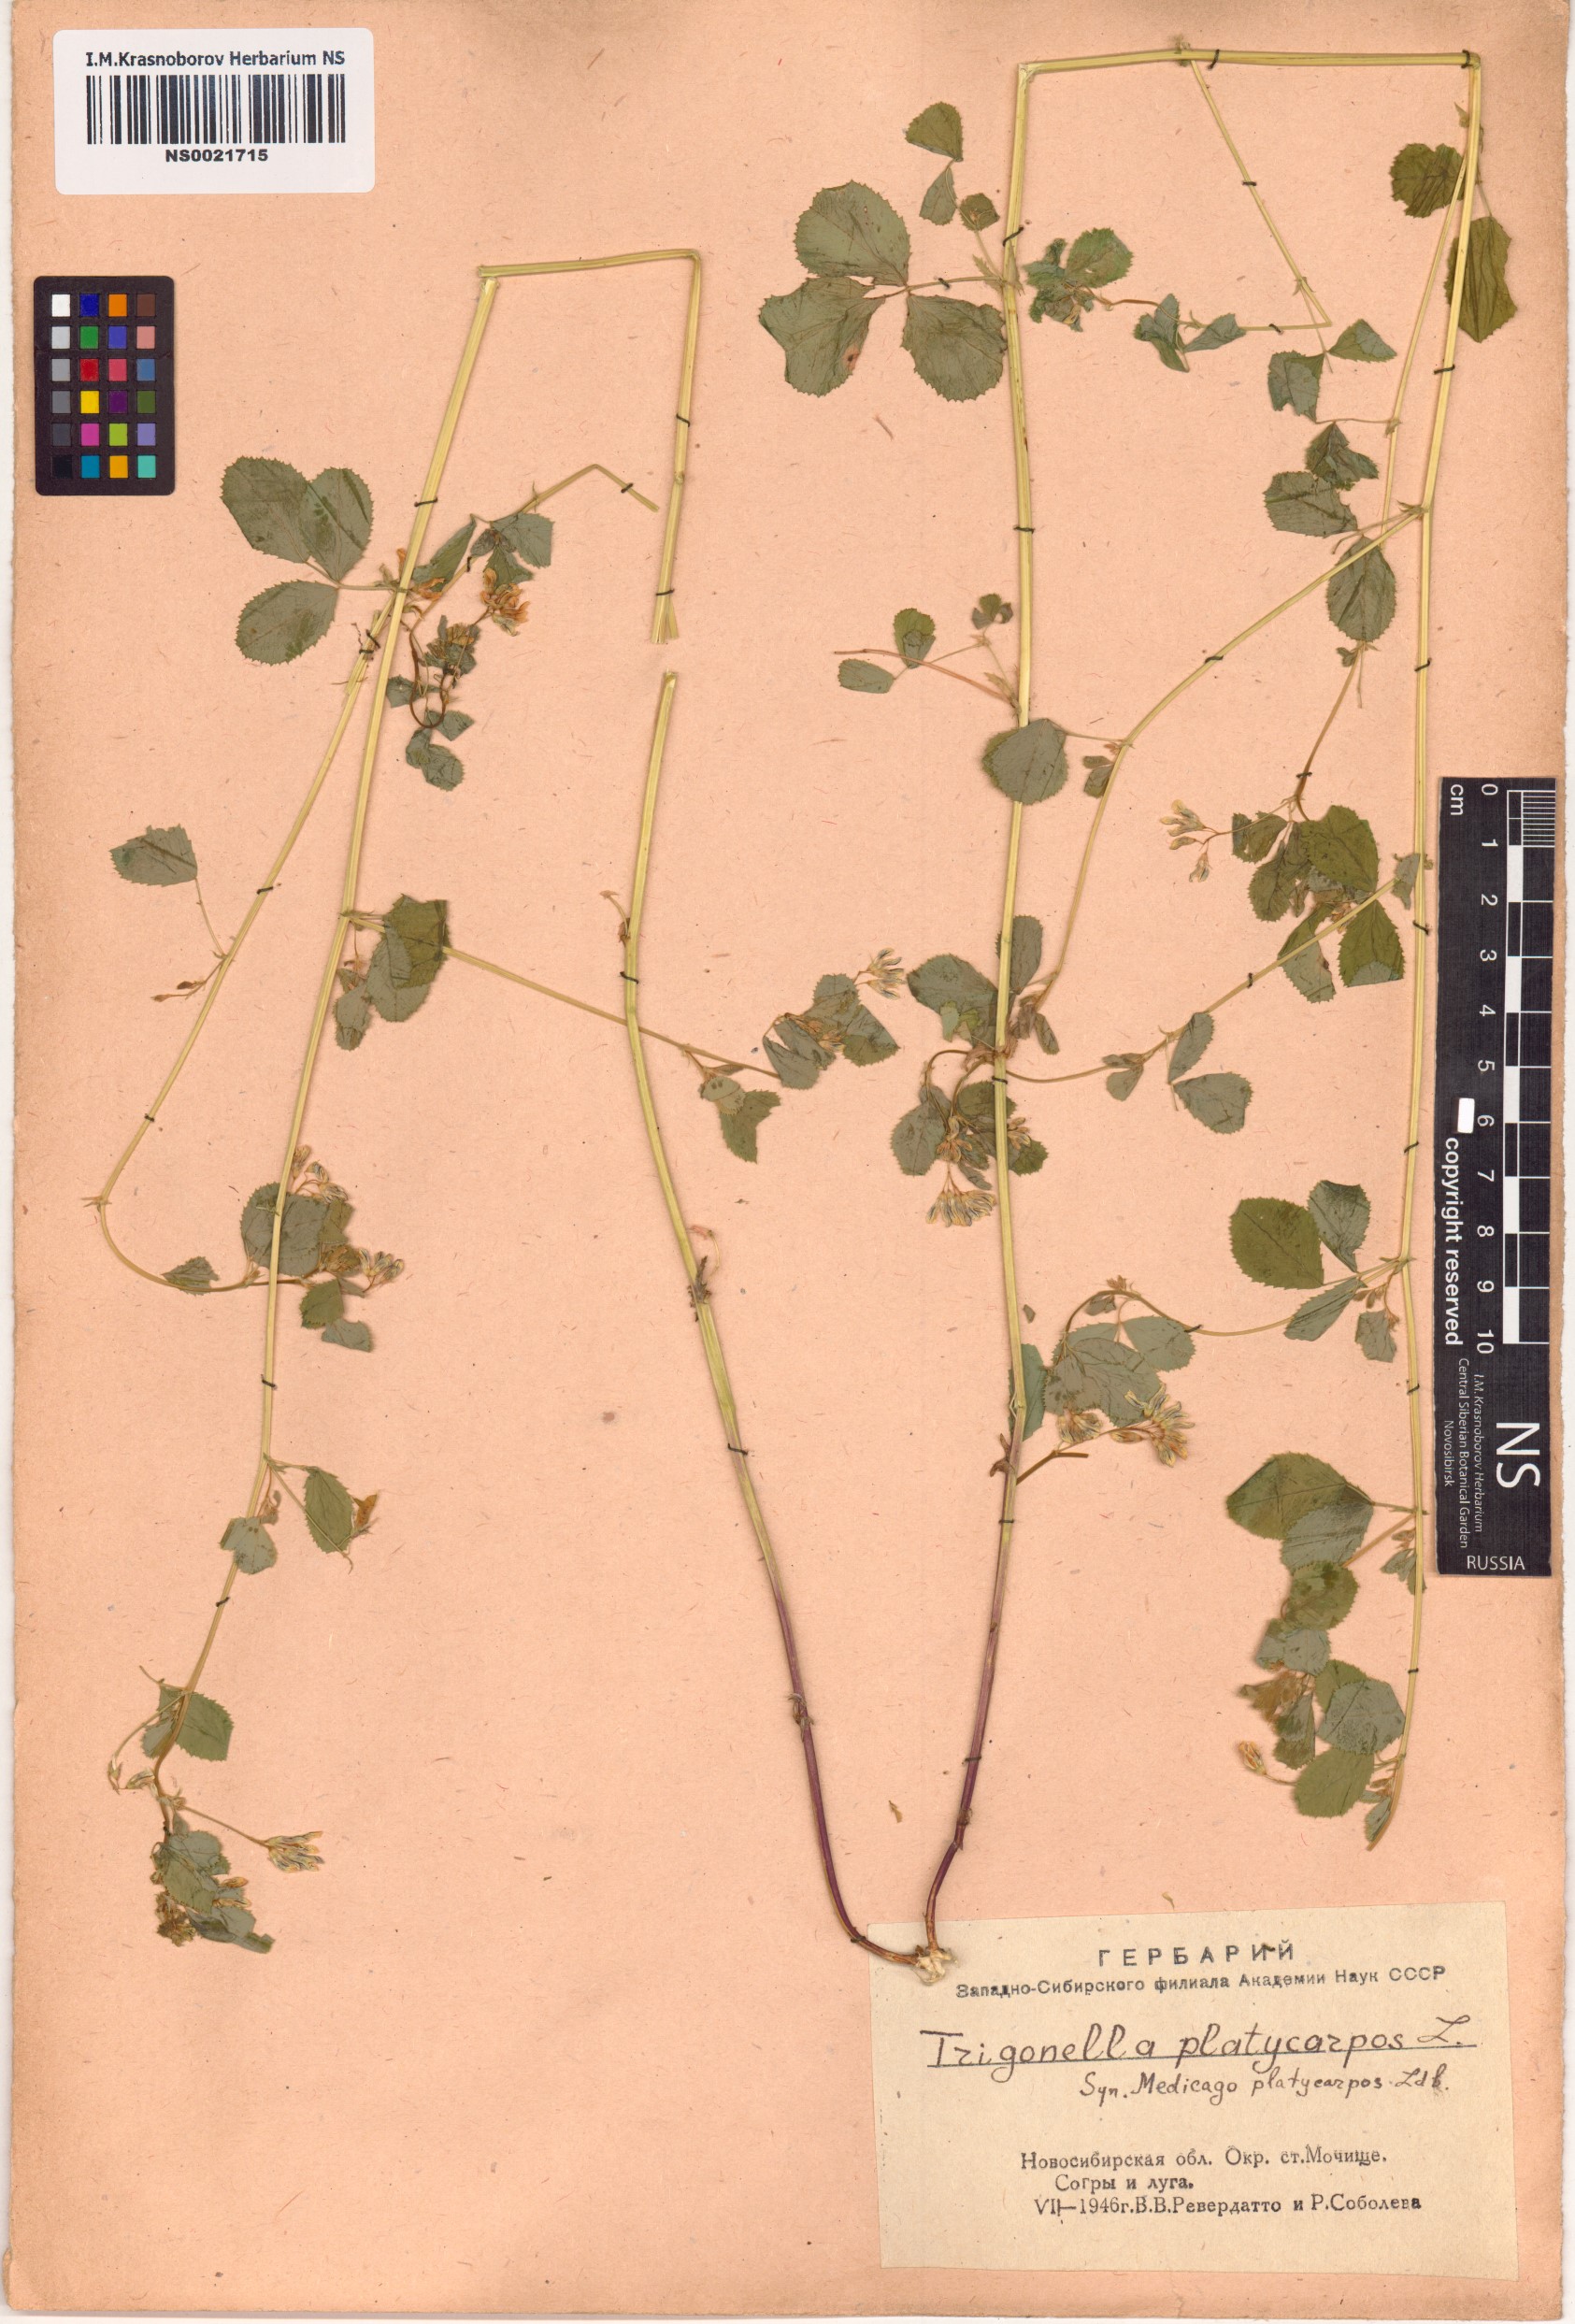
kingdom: Plantae
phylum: Tracheophyta
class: Magnoliopsida
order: Fabales
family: Fabaceae
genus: Medicago
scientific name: Medicago platycarpos
